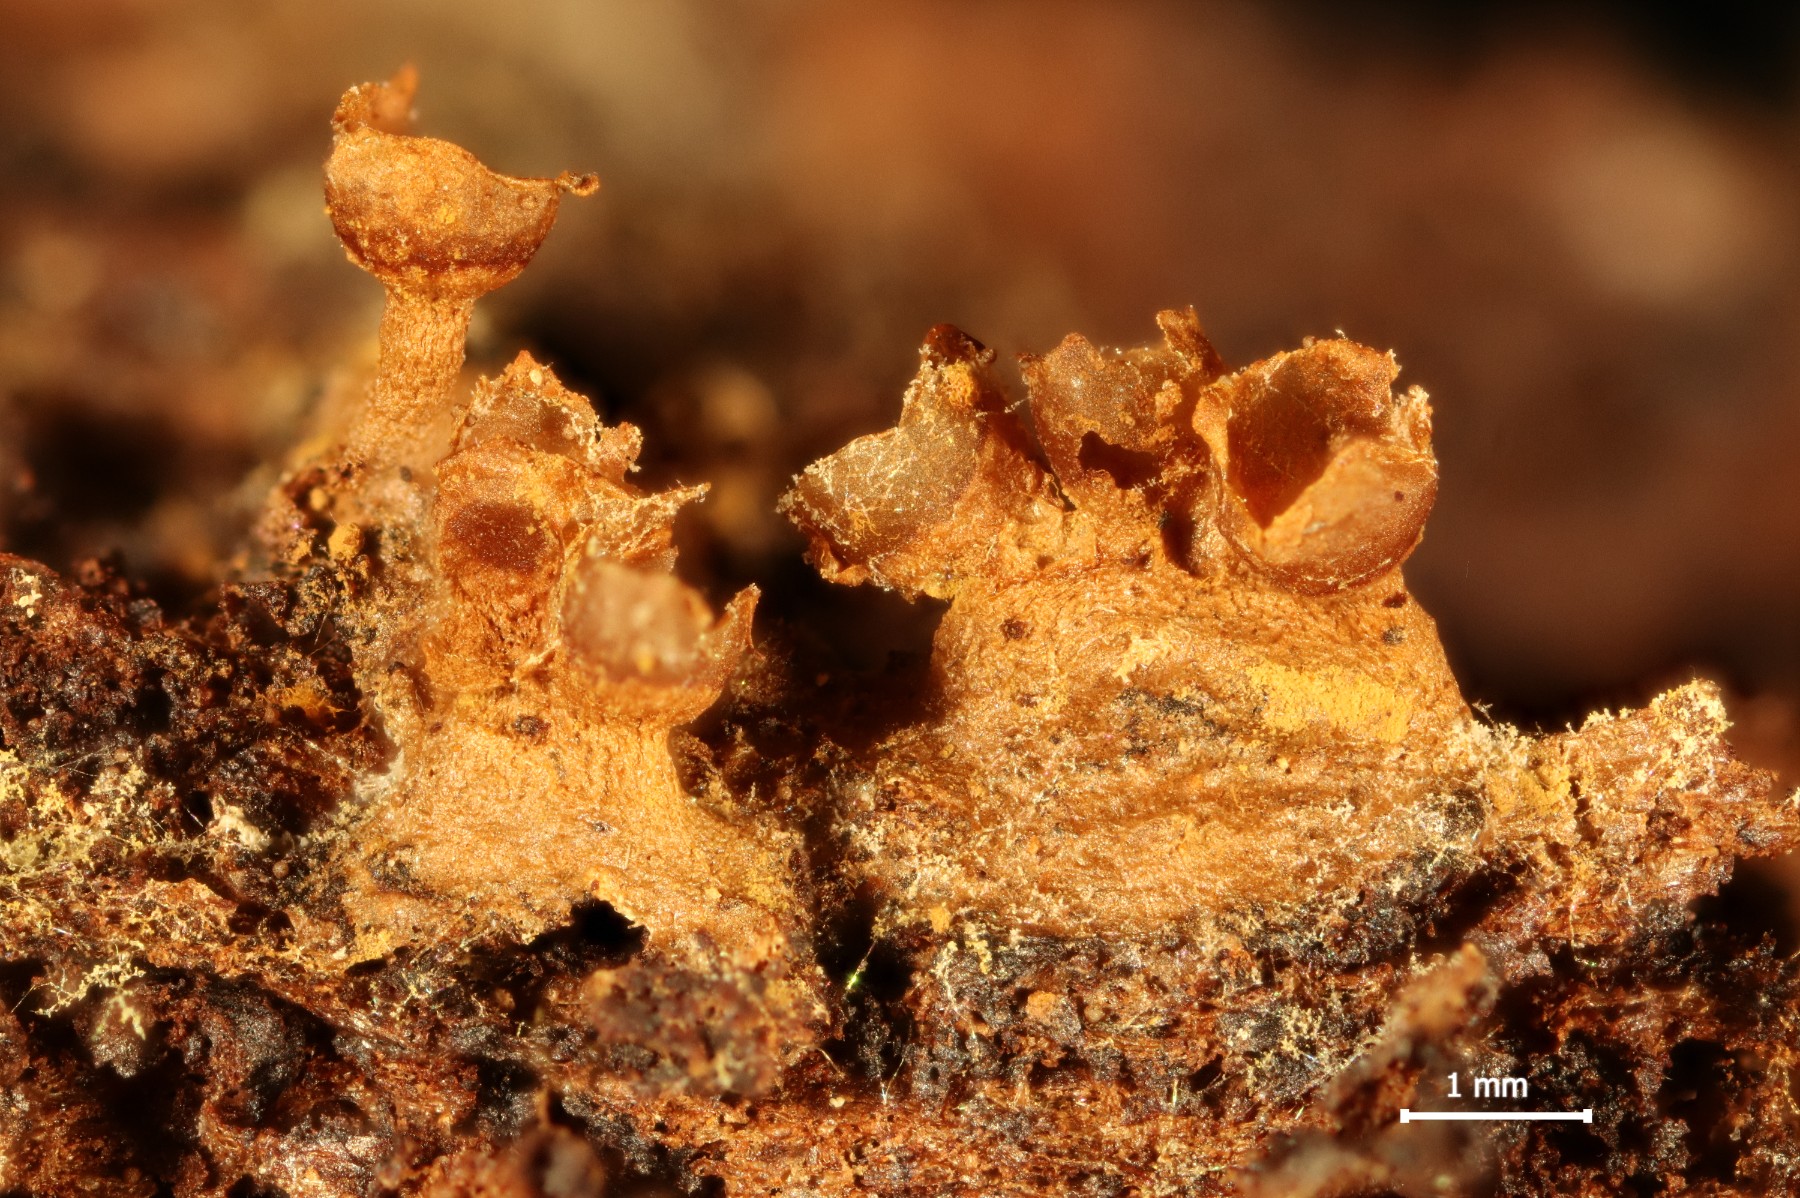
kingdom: Protozoa
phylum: Mycetozoa
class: Myxomycetes
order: Trichiales
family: Trichiaceae
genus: Trichia
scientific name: Trichia ambigua
